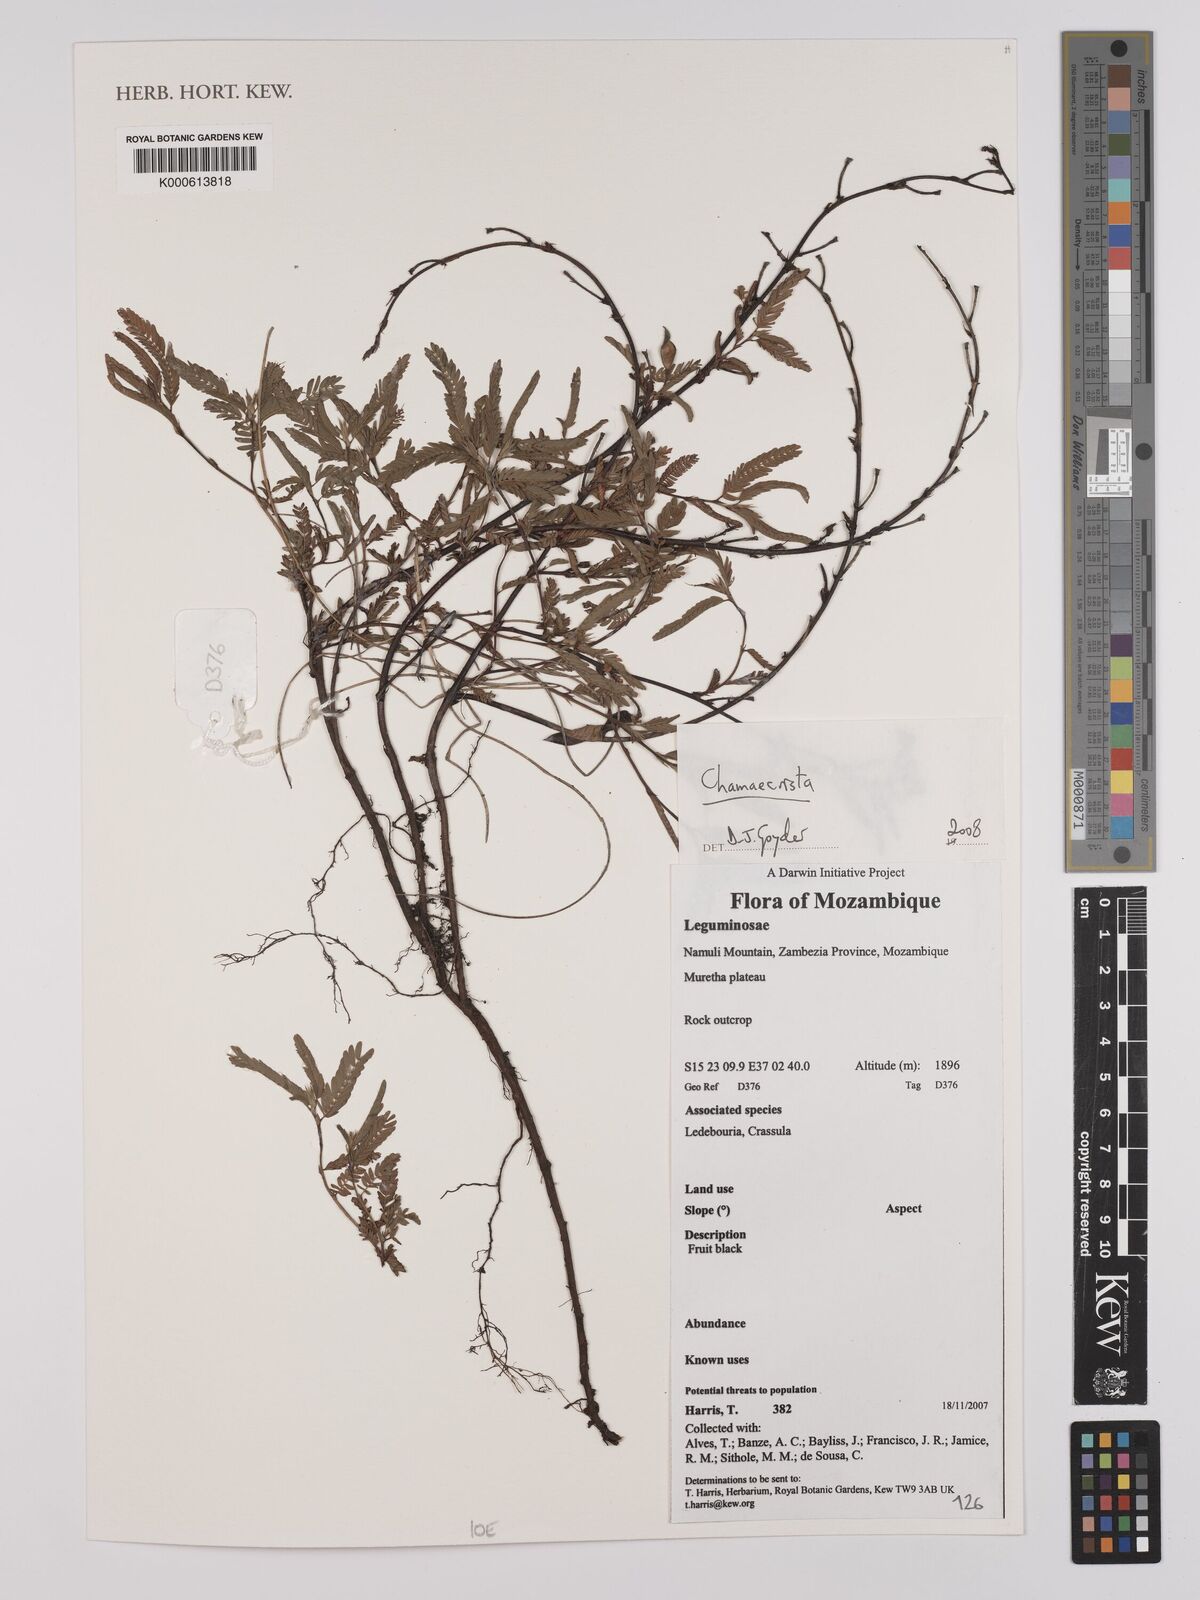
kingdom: Plantae
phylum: Tracheophyta
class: Magnoliopsida
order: Fabales
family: Fabaceae
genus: Chamaecrista
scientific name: Chamaecrista
